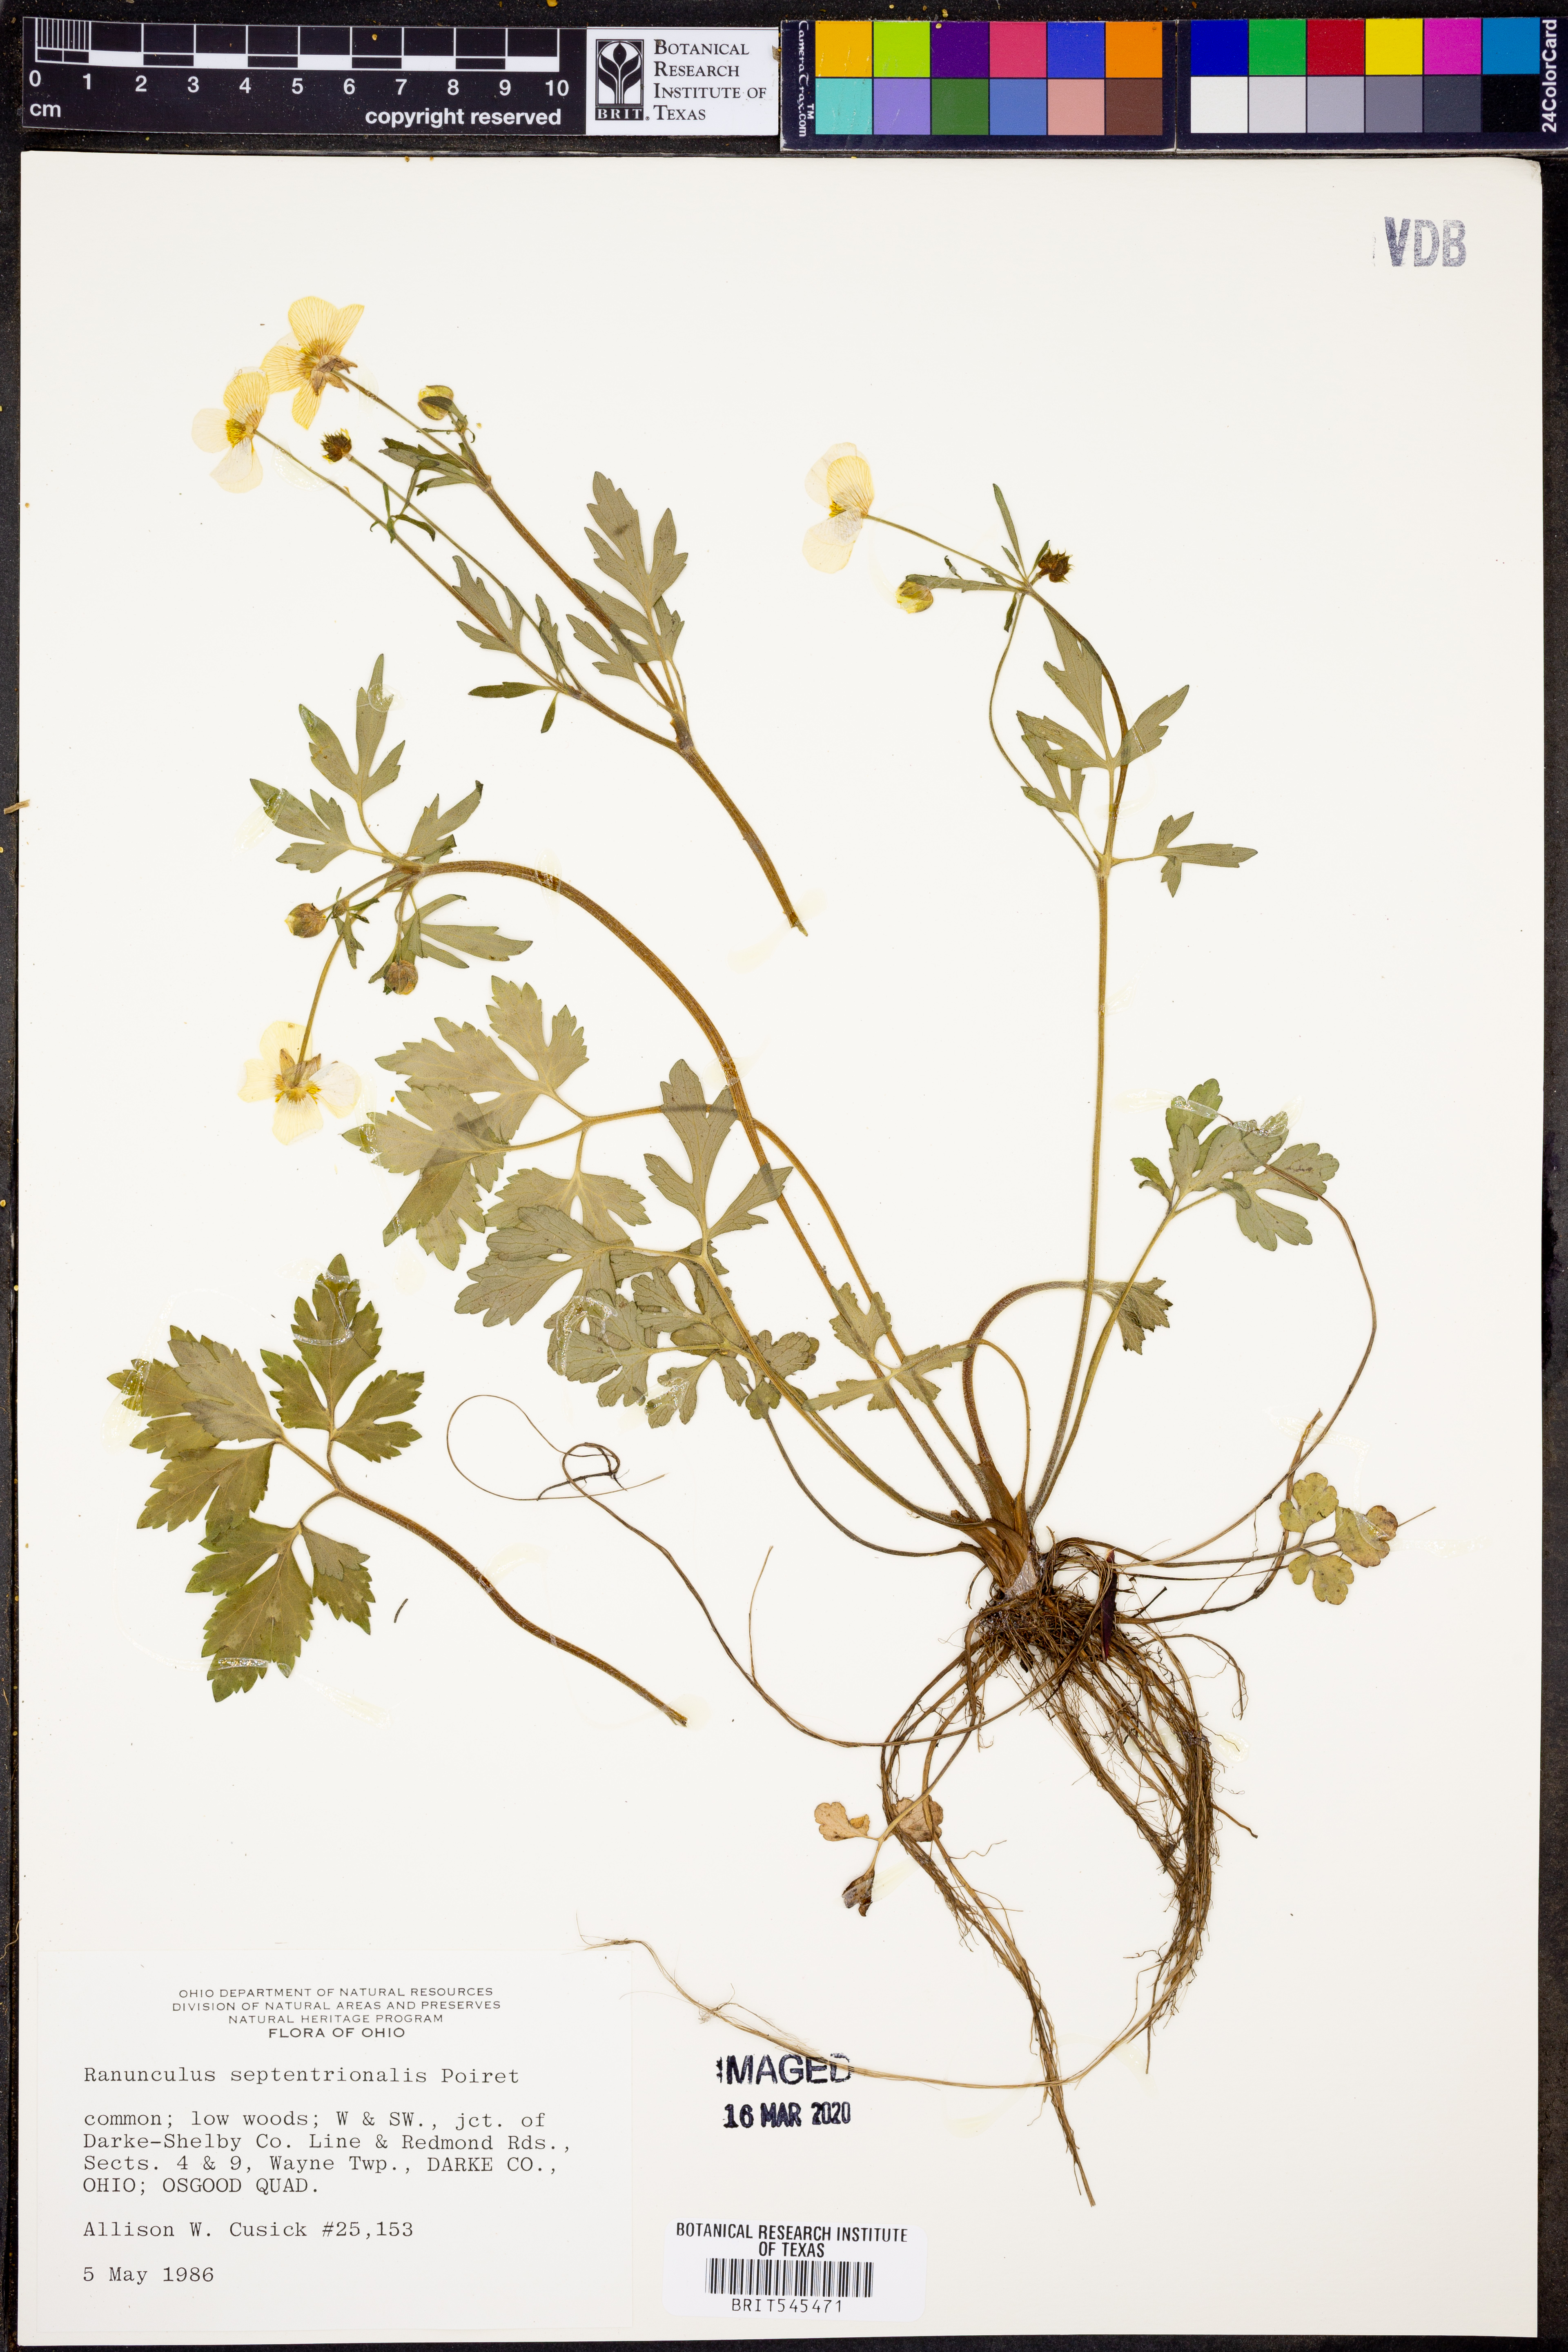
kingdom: Plantae
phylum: Tracheophyta
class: Magnoliopsida
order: Ranunculales
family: Ranunculaceae
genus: Ranunculus
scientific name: Ranunculus hispidus
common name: Bristly buttercup
